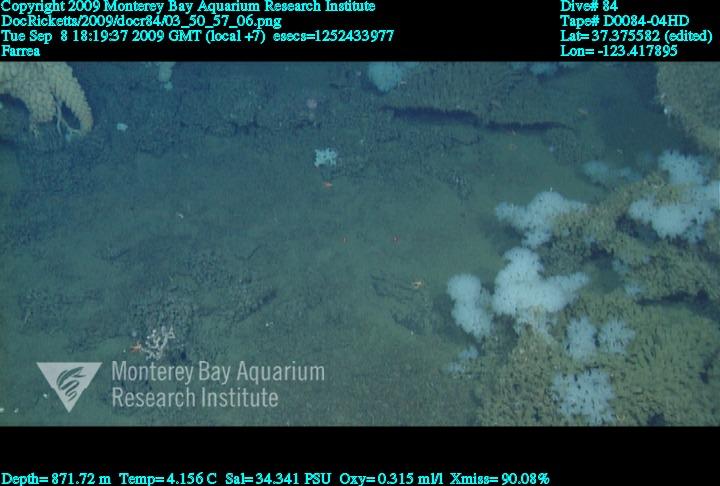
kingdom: Animalia
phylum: Porifera
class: Hexactinellida
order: Sceptrulophora
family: Farreidae
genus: Farrea
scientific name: Farrea
